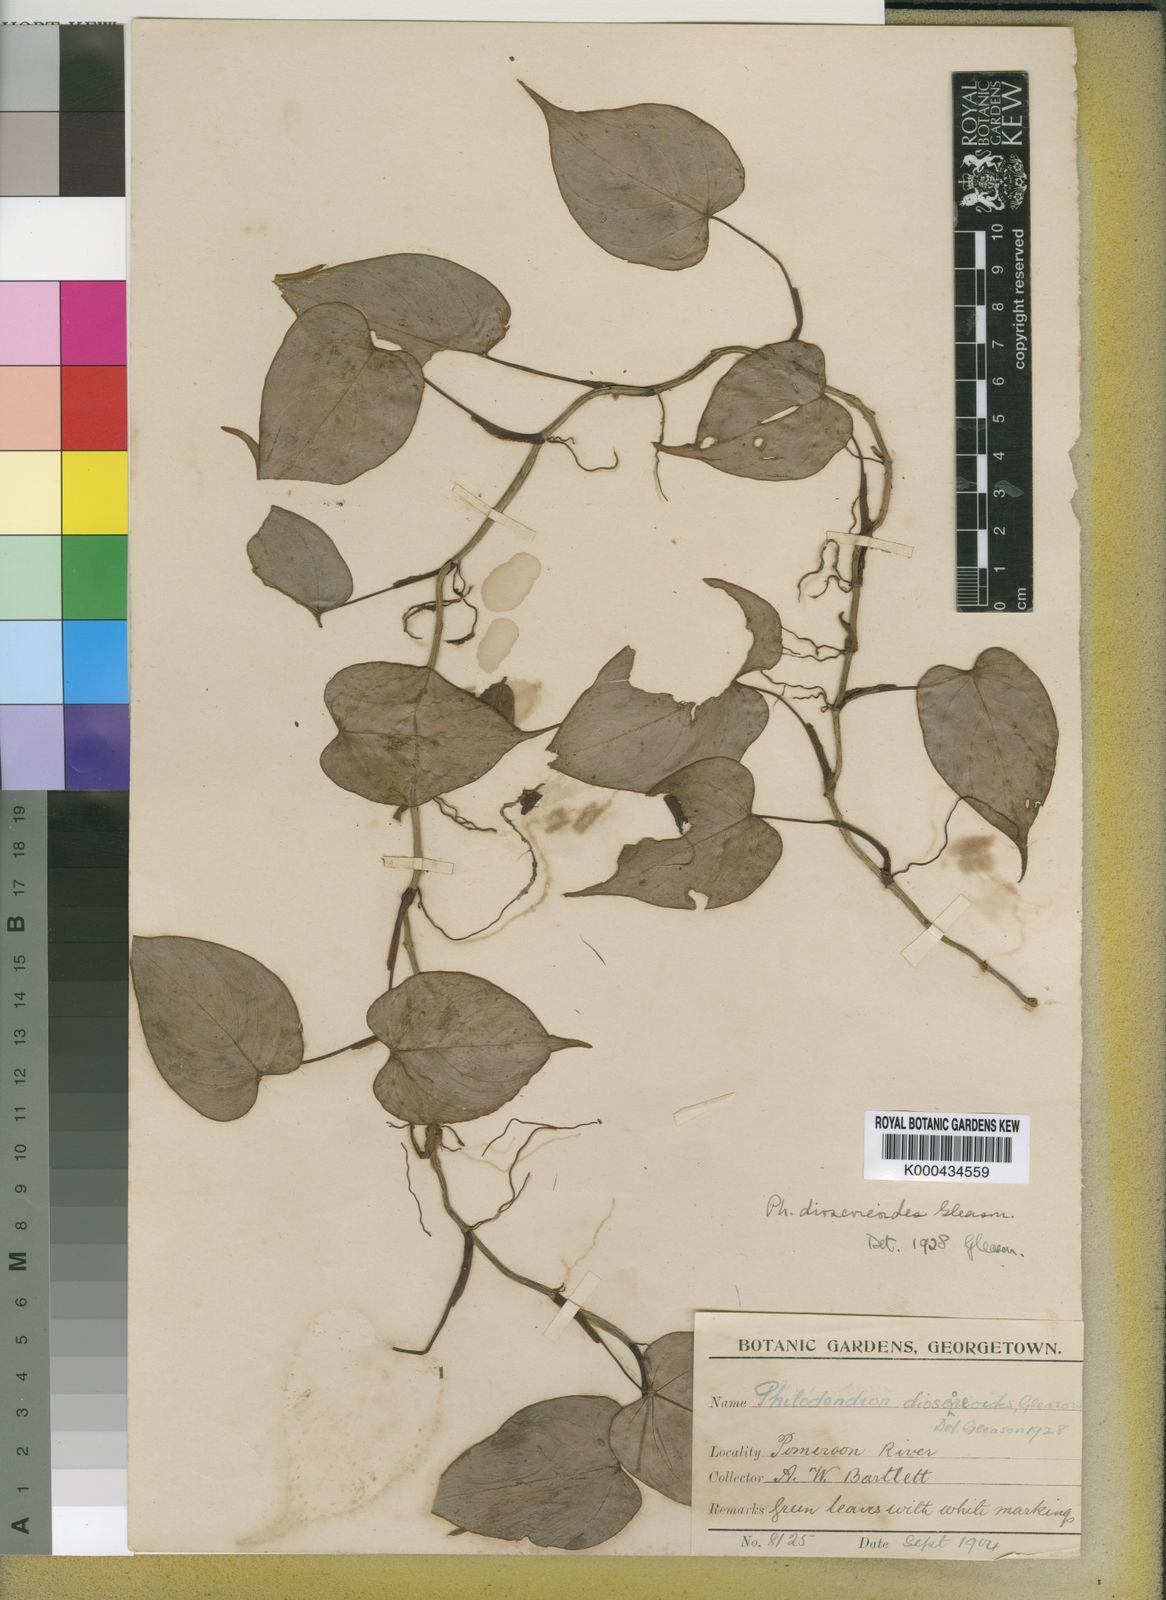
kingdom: Plantae
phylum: Tracheophyta
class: Liliopsida
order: Alismatales
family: Araceae
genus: Philodendron
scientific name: Philodendron dioscoreoides
